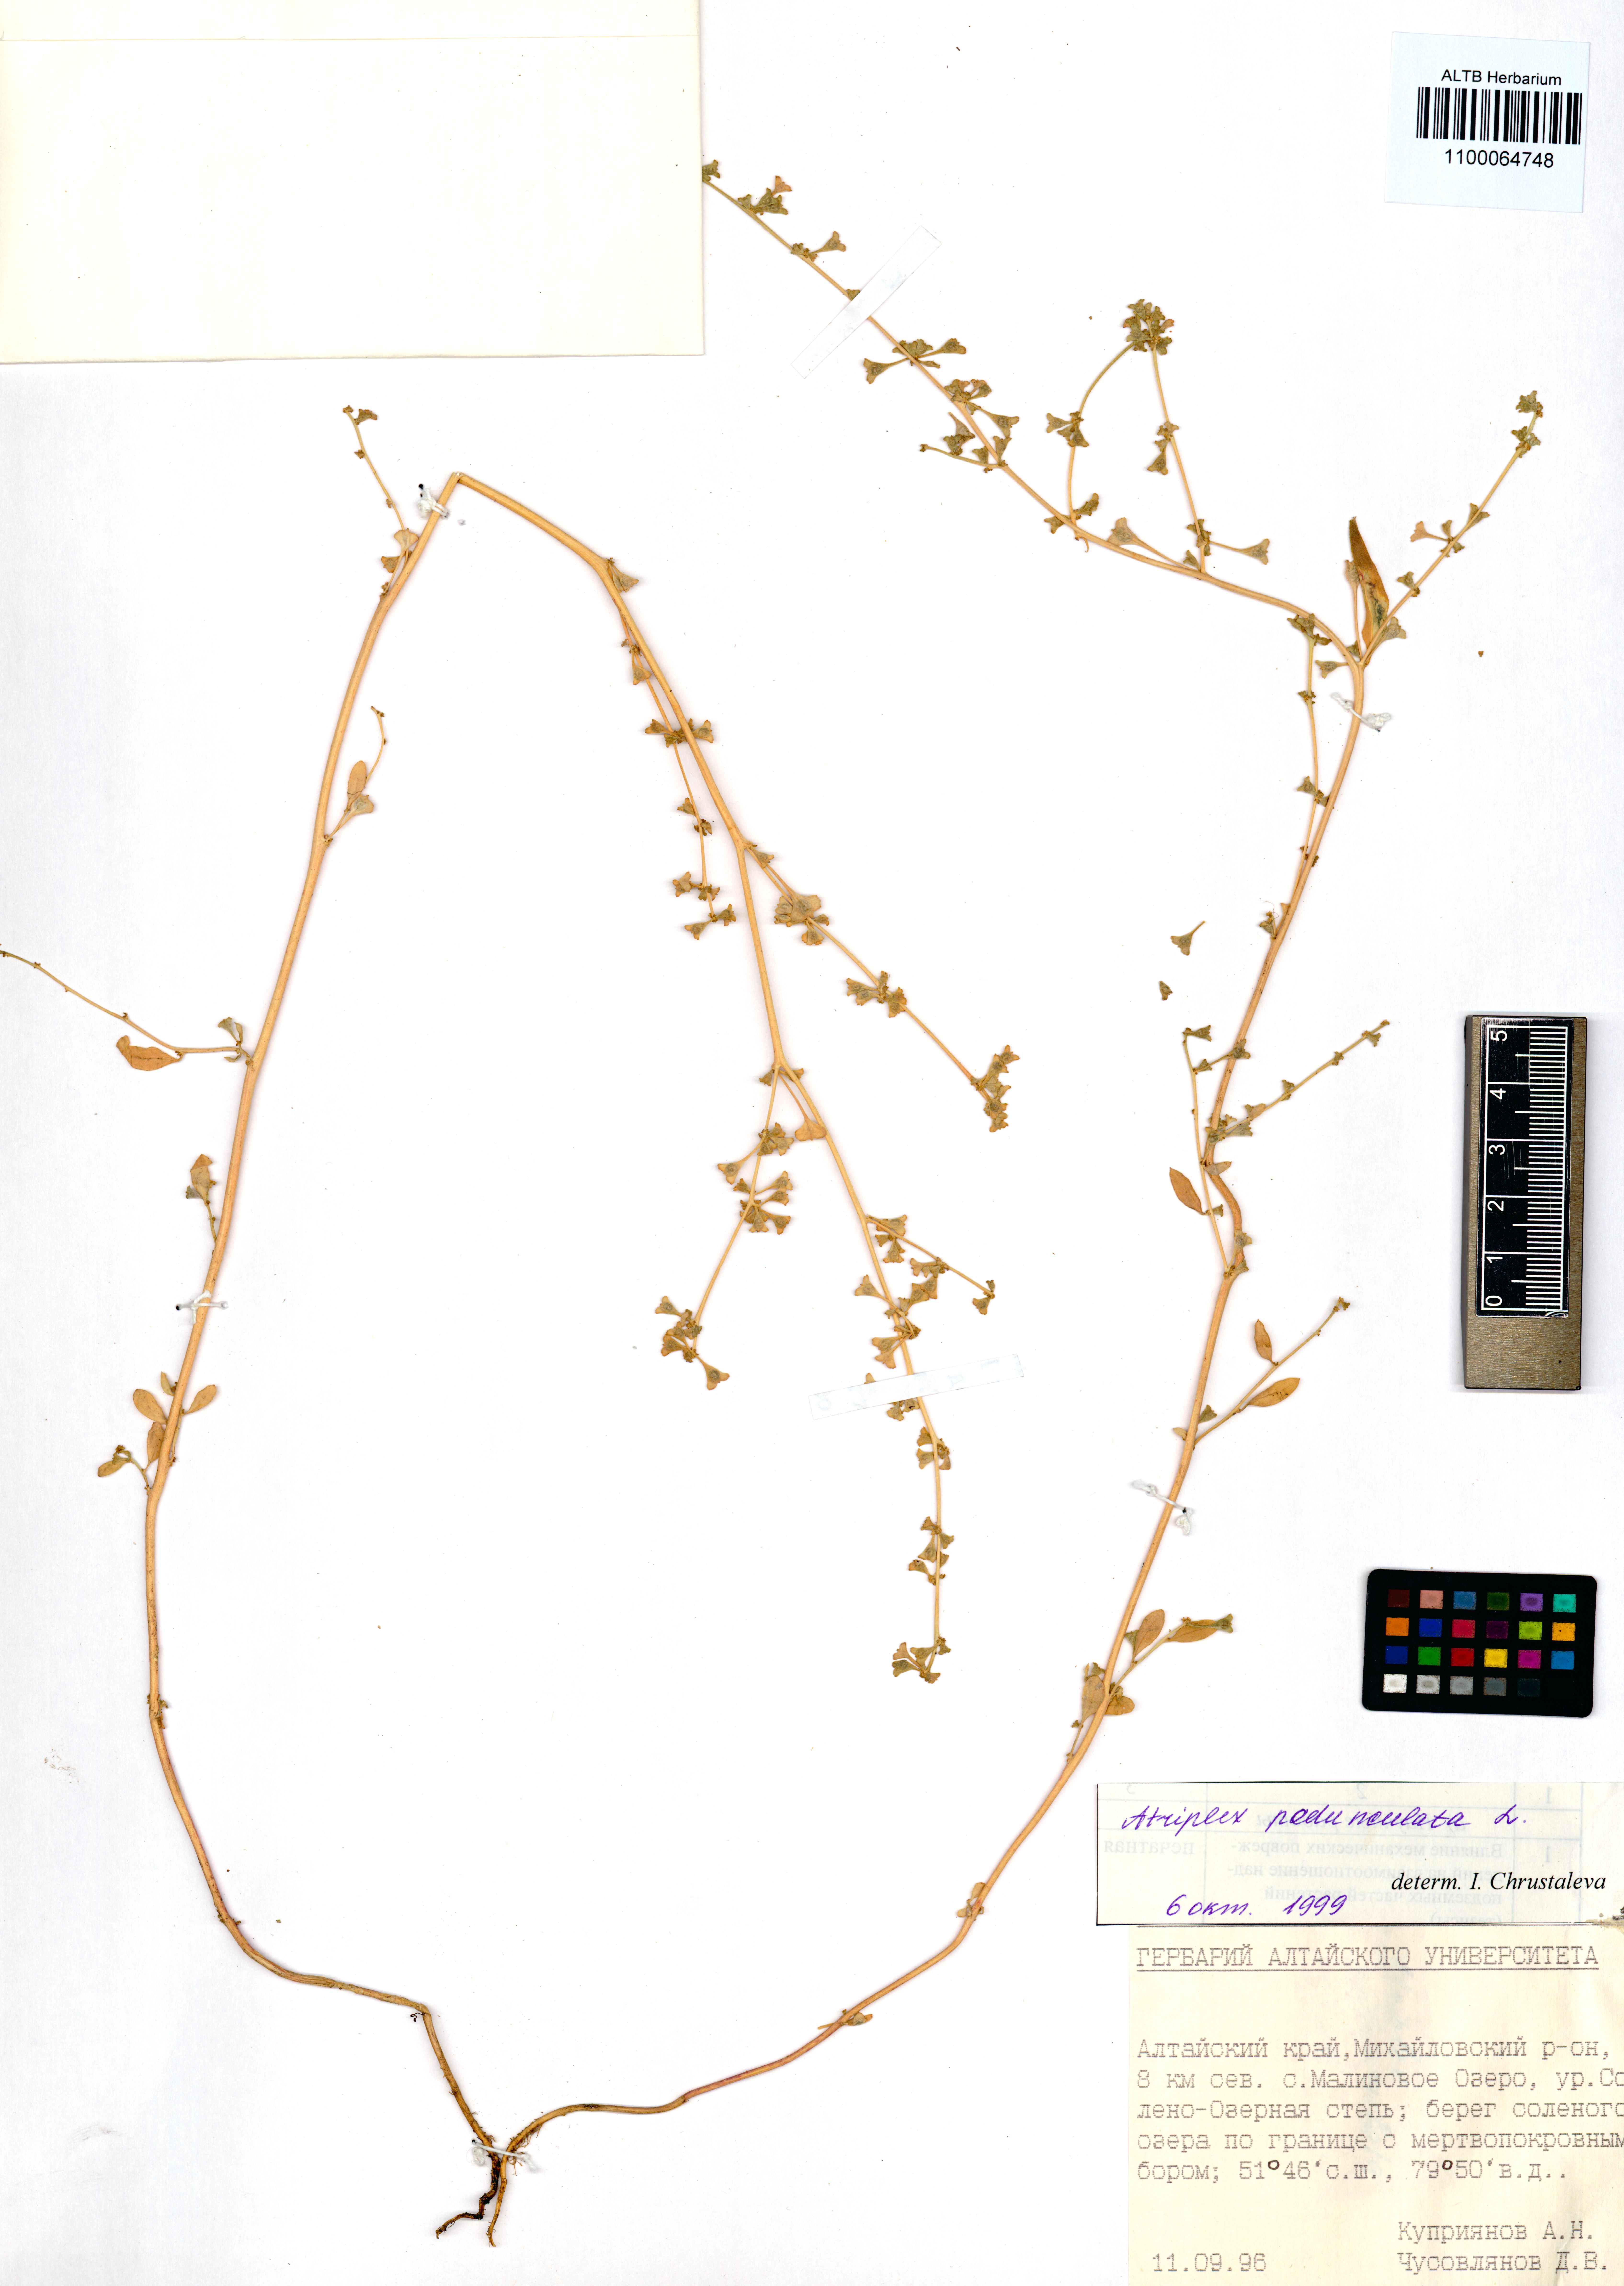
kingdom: Plantae
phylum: Tracheophyta
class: Magnoliopsida
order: Caryophyllales
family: Amaranthaceae
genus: Halimione
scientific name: Halimione pedunculata
